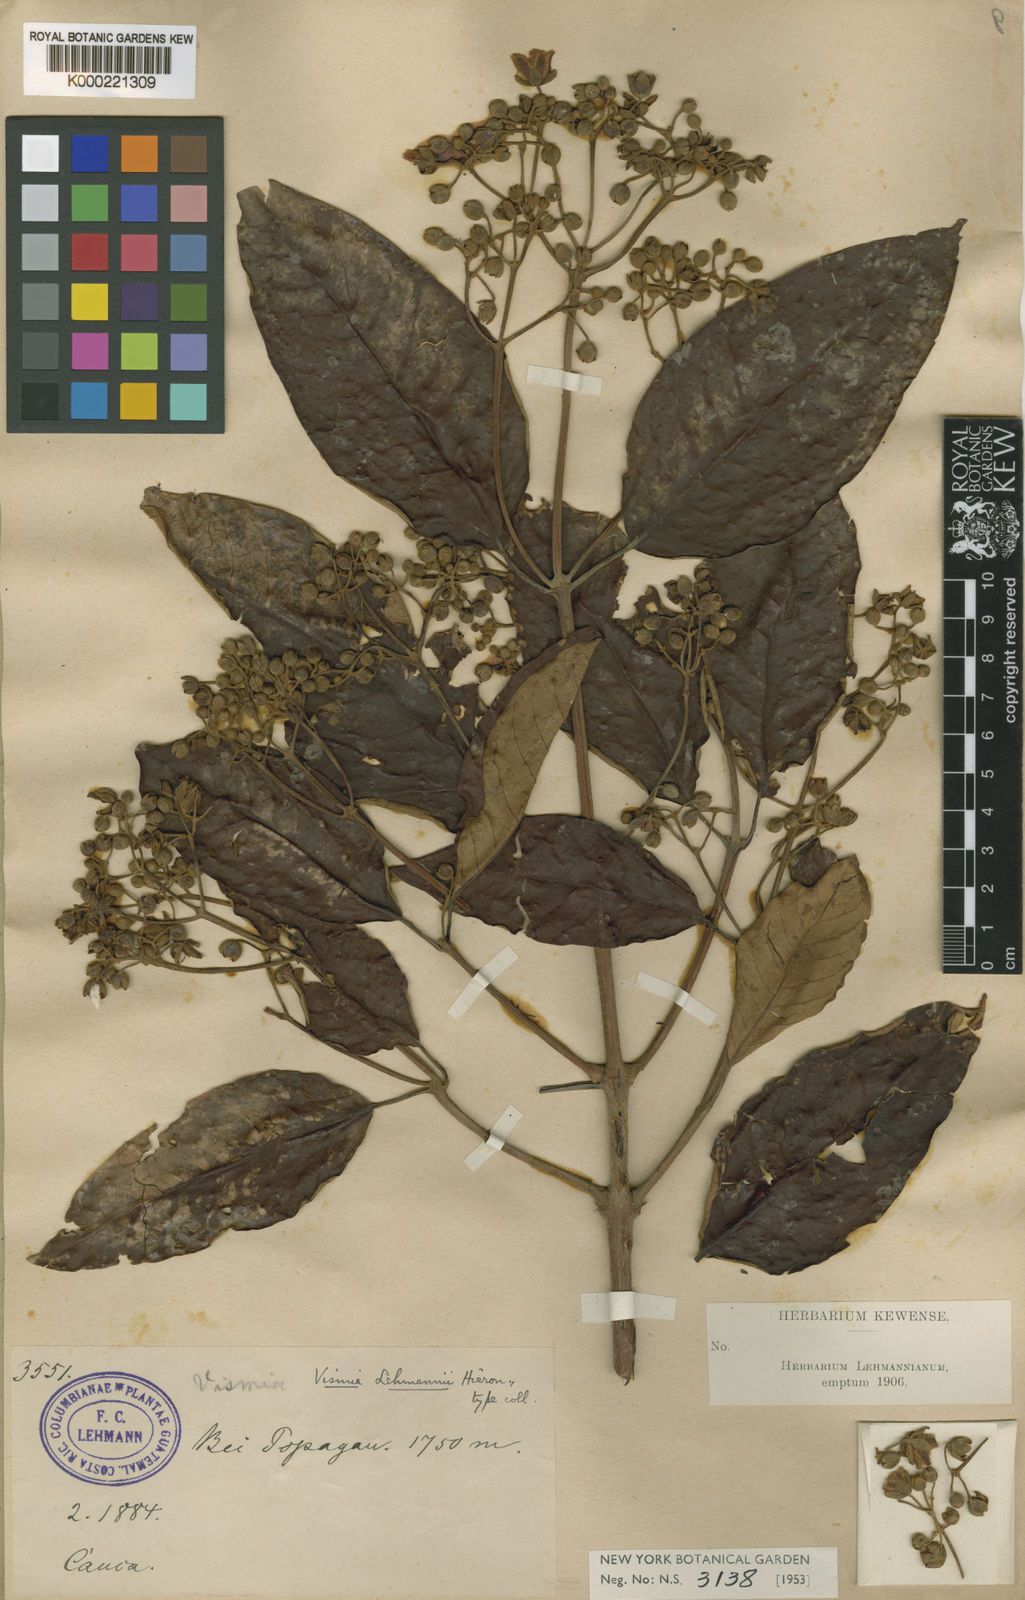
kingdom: Plantae
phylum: Tracheophyta
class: Magnoliopsida
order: Malpighiales
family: Hypericaceae
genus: Vismia
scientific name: Vismia mandurr
